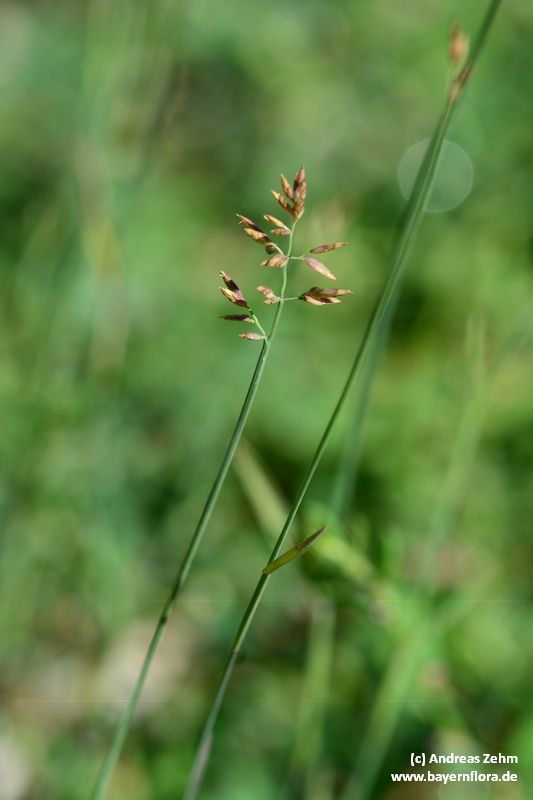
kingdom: Plantae
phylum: Tracheophyta
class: Liliopsida
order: Poales
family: Poaceae
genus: Poa
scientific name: Poa compressa
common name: Canada bluegrass
